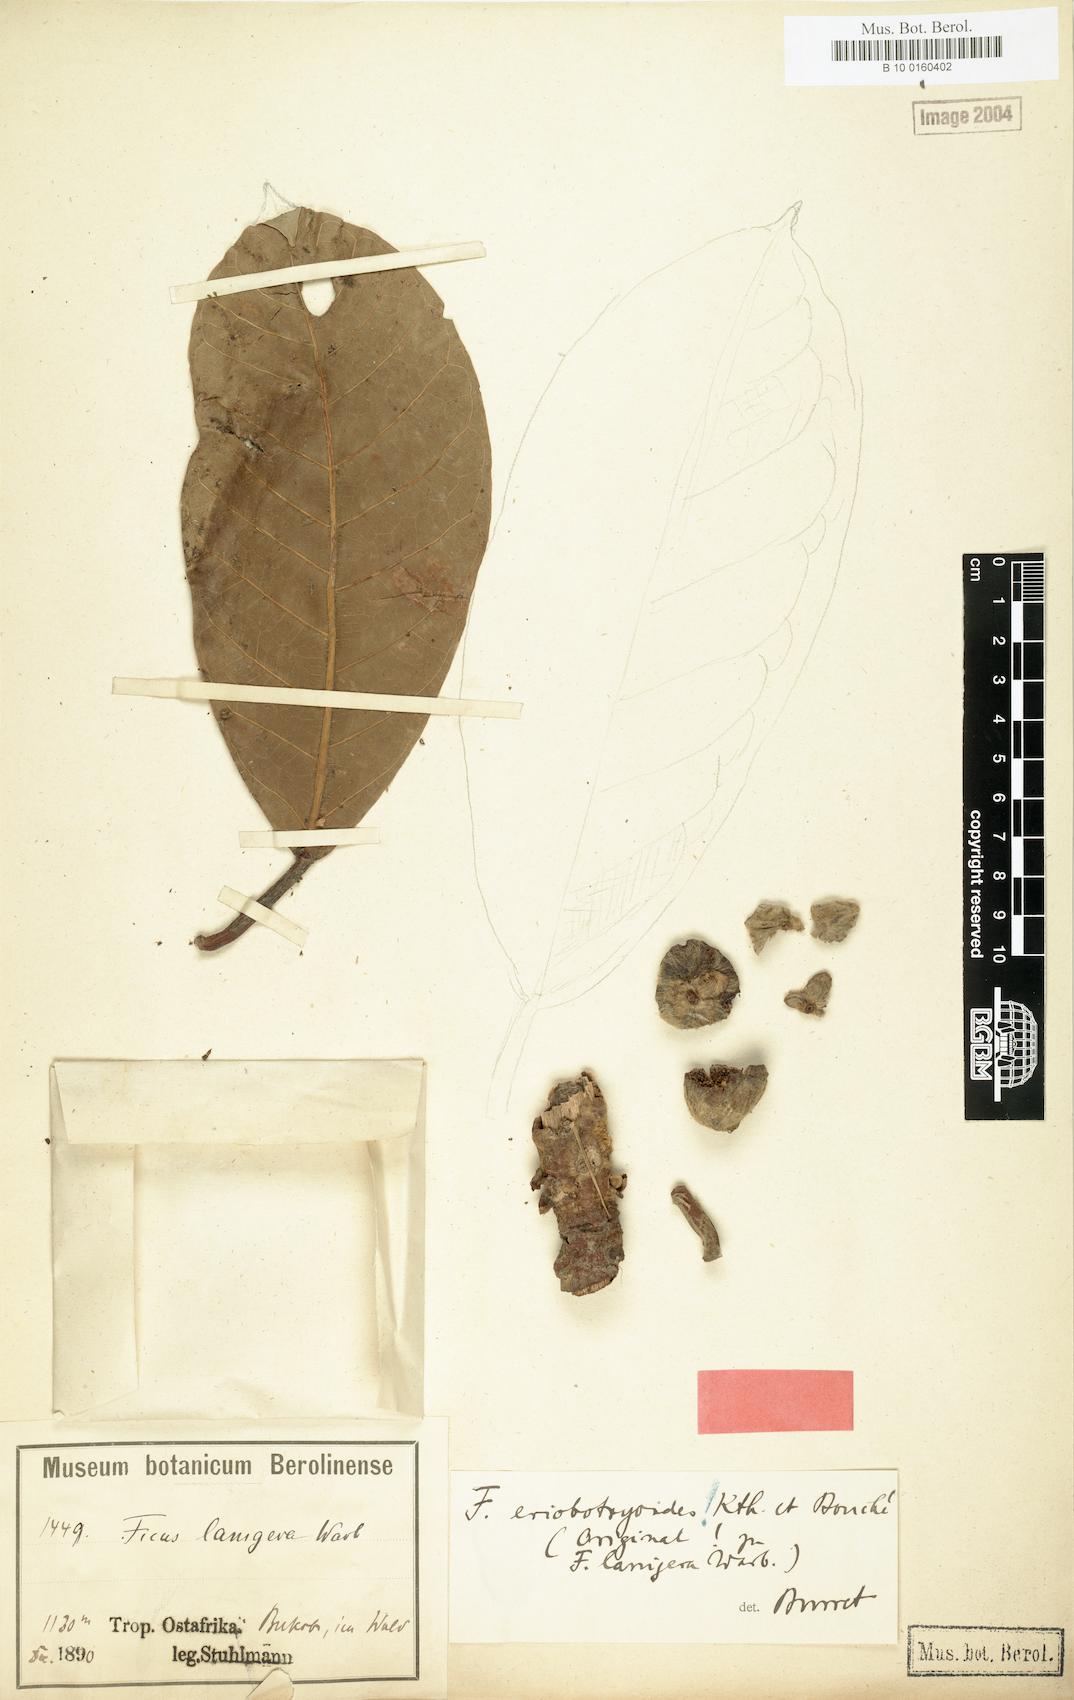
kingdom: Plantae
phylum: Tracheophyta
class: Magnoliopsida
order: Rosales
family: Moraceae
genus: Ficus
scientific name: Ficus
